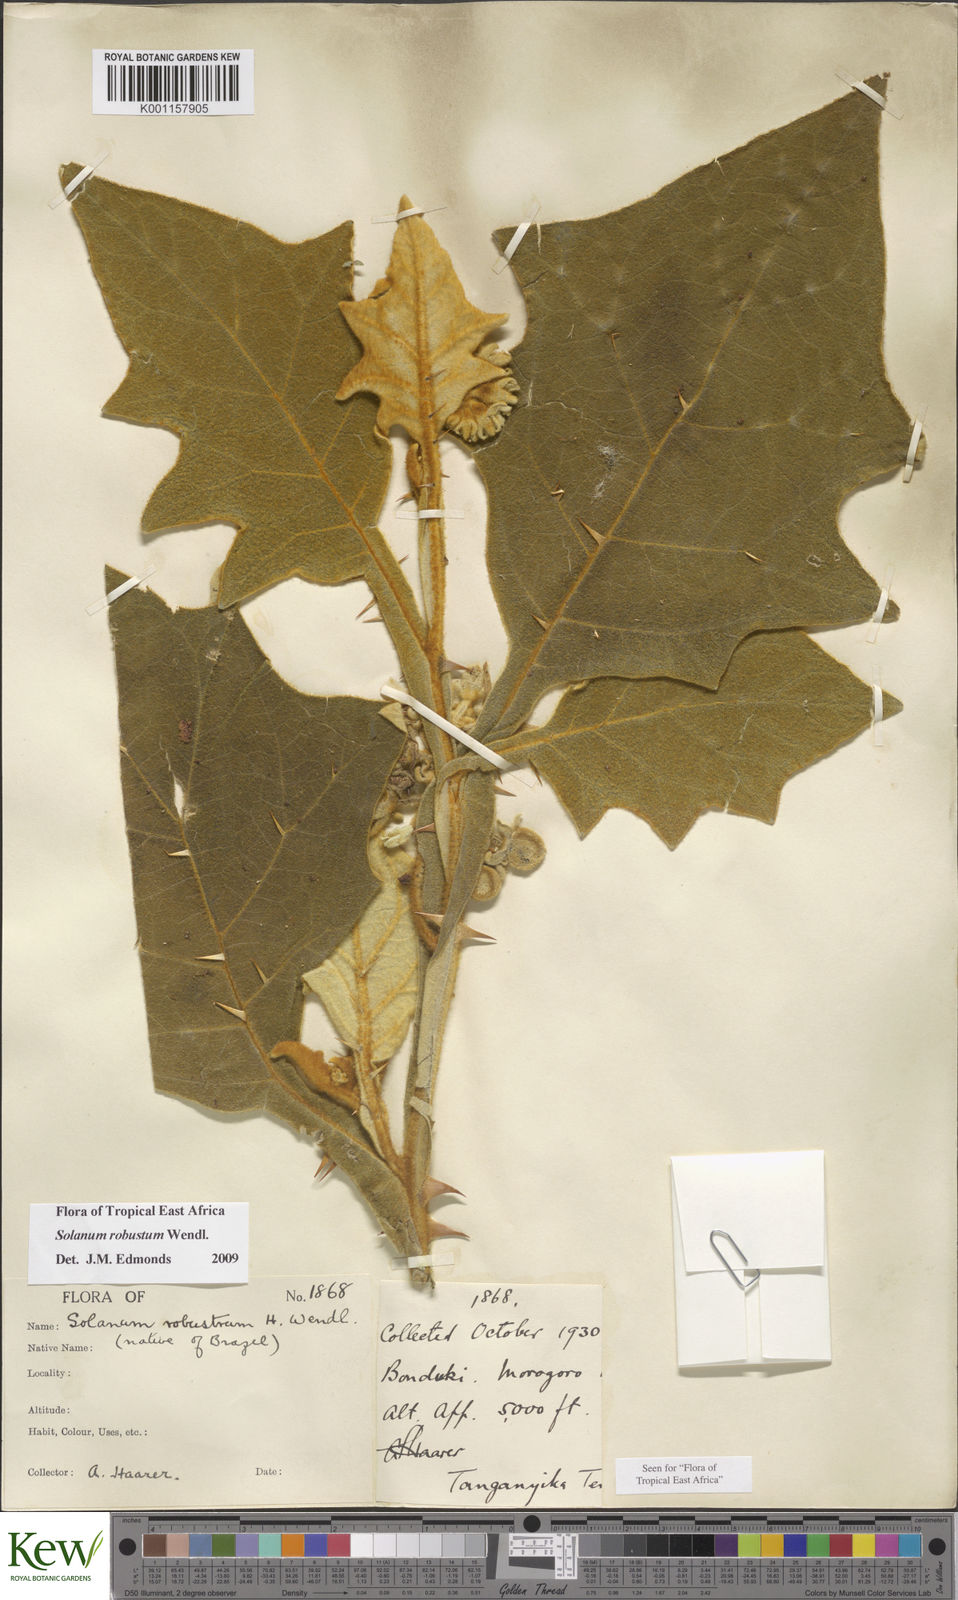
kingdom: Plantae
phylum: Tracheophyta
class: Magnoliopsida
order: Solanales
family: Solanaceae
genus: Solanum
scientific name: Solanum robustum
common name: Shrubby nightshade
